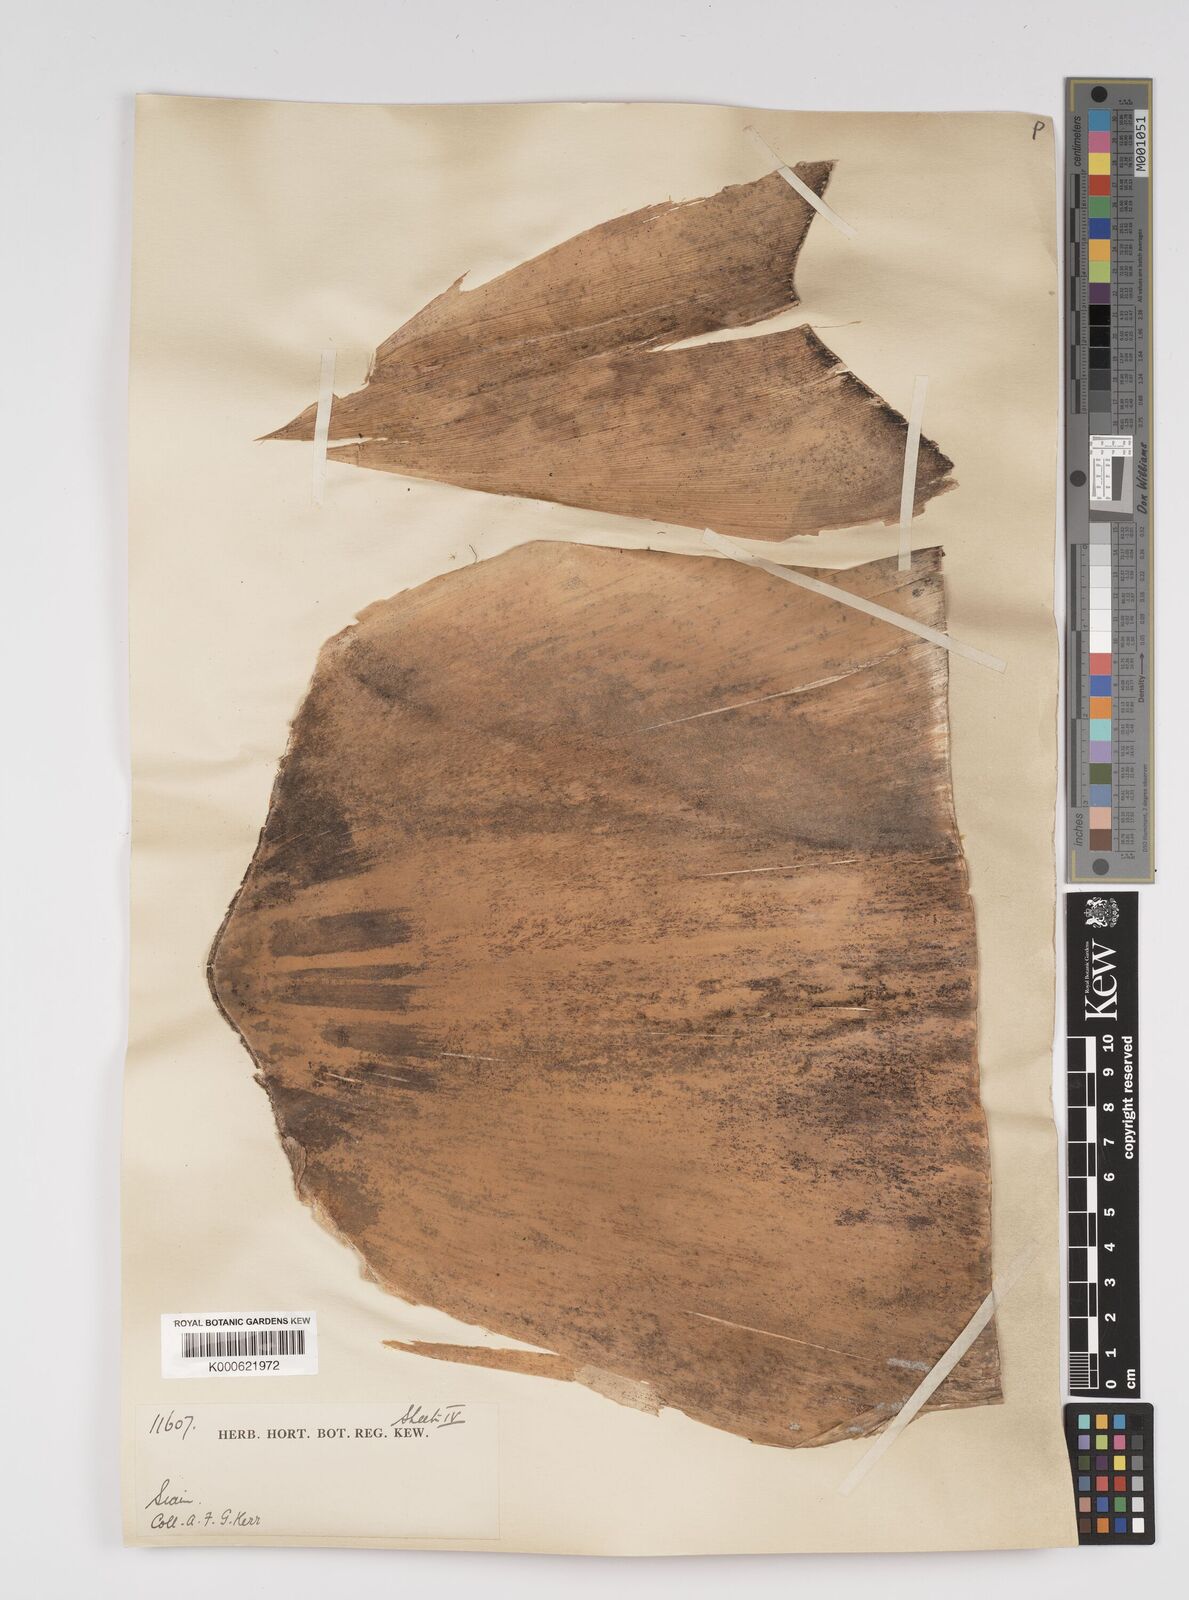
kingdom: Plantae
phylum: Tracheophyta
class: Liliopsida
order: Poales
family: Poaceae
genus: Bambusa
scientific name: Bambusa
